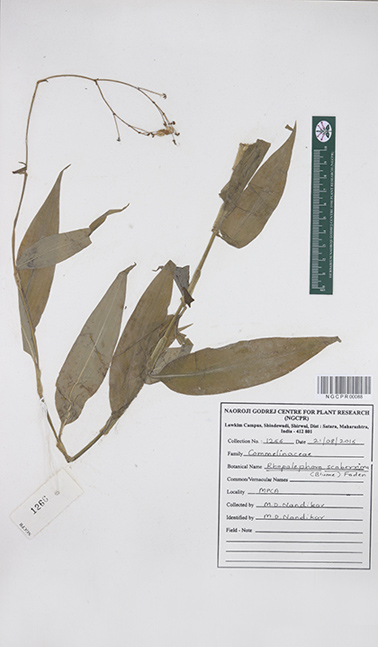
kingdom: Plantae
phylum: Tracheophyta
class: Liliopsida
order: Commelinales
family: Commelinaceae
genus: Rhopalephora
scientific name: Rhopalephora scaberrima
